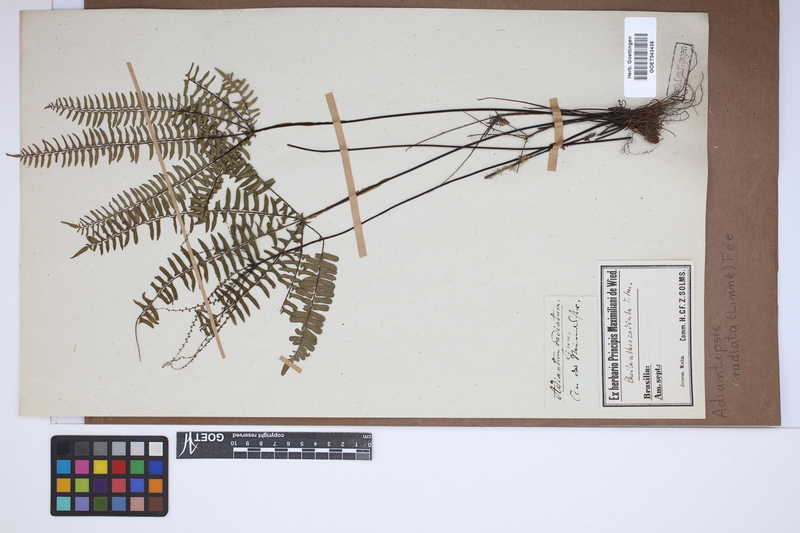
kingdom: Plantae
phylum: Tracheophyta
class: Polypodiopsida
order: Polypodiales
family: Pteridaceae
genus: Adiantopsis
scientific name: Adiantopsis radiata
